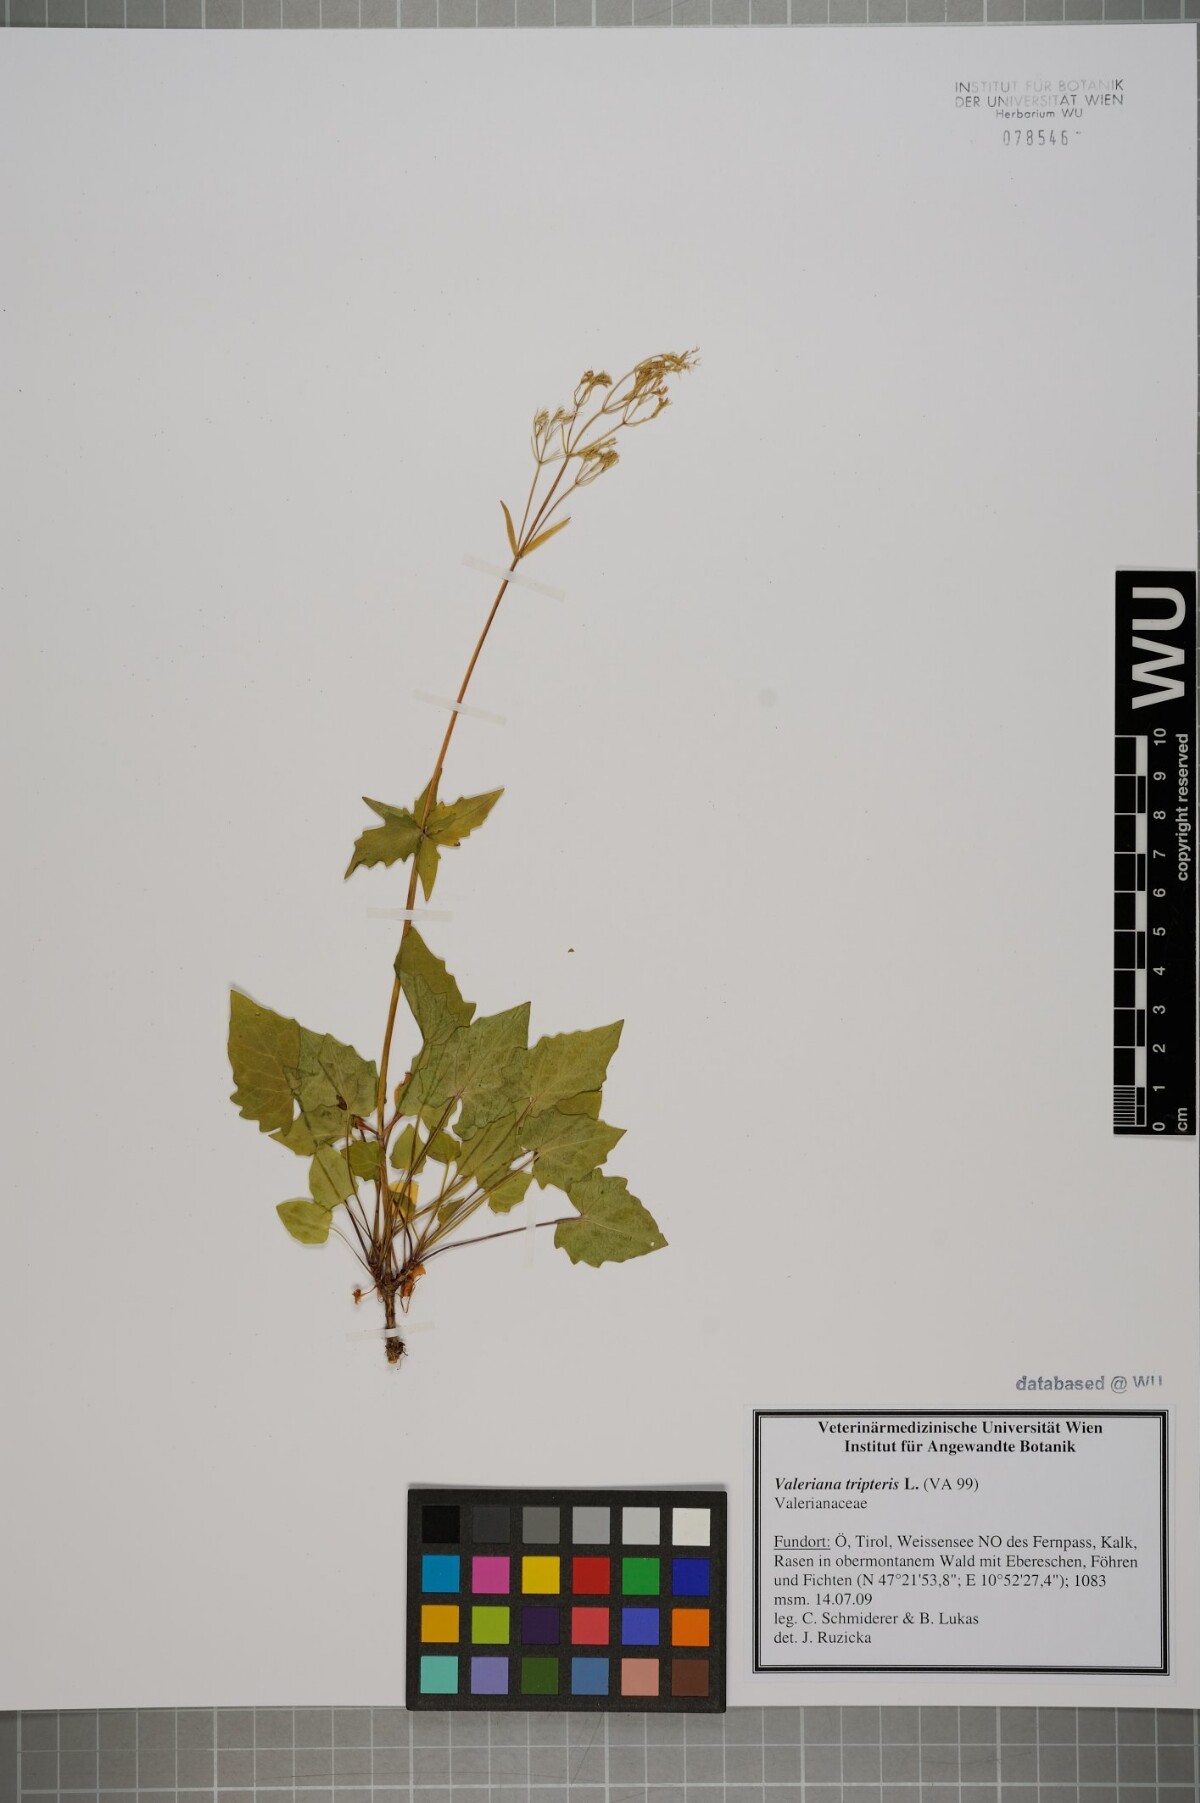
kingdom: Plantae
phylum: Tracheophyta
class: Magnoliopsida
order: Dipsacales
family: Caprifoliaceae
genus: Valeriana
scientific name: Valeriana tripteris
